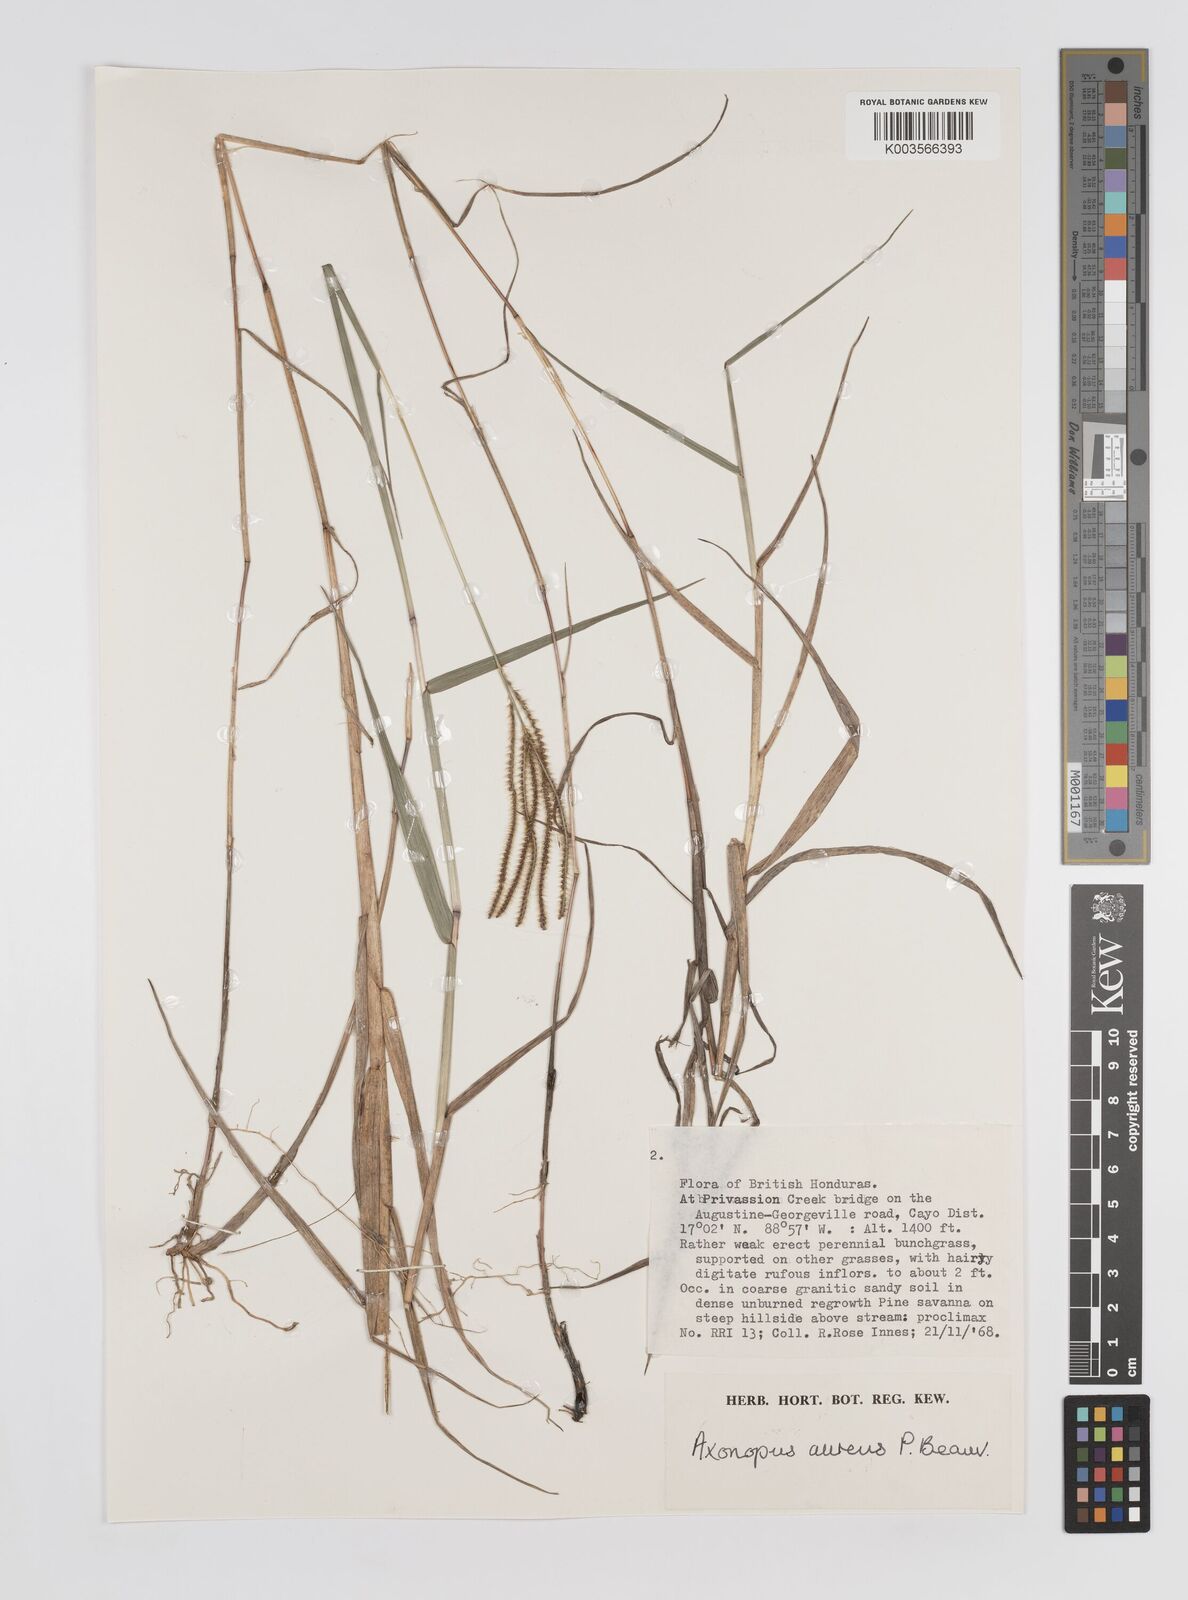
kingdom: Plantae
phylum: Tracheophyta
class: Liliopsida
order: Poales
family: Poaceae
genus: Axonopus
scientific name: Axonopus aureus
